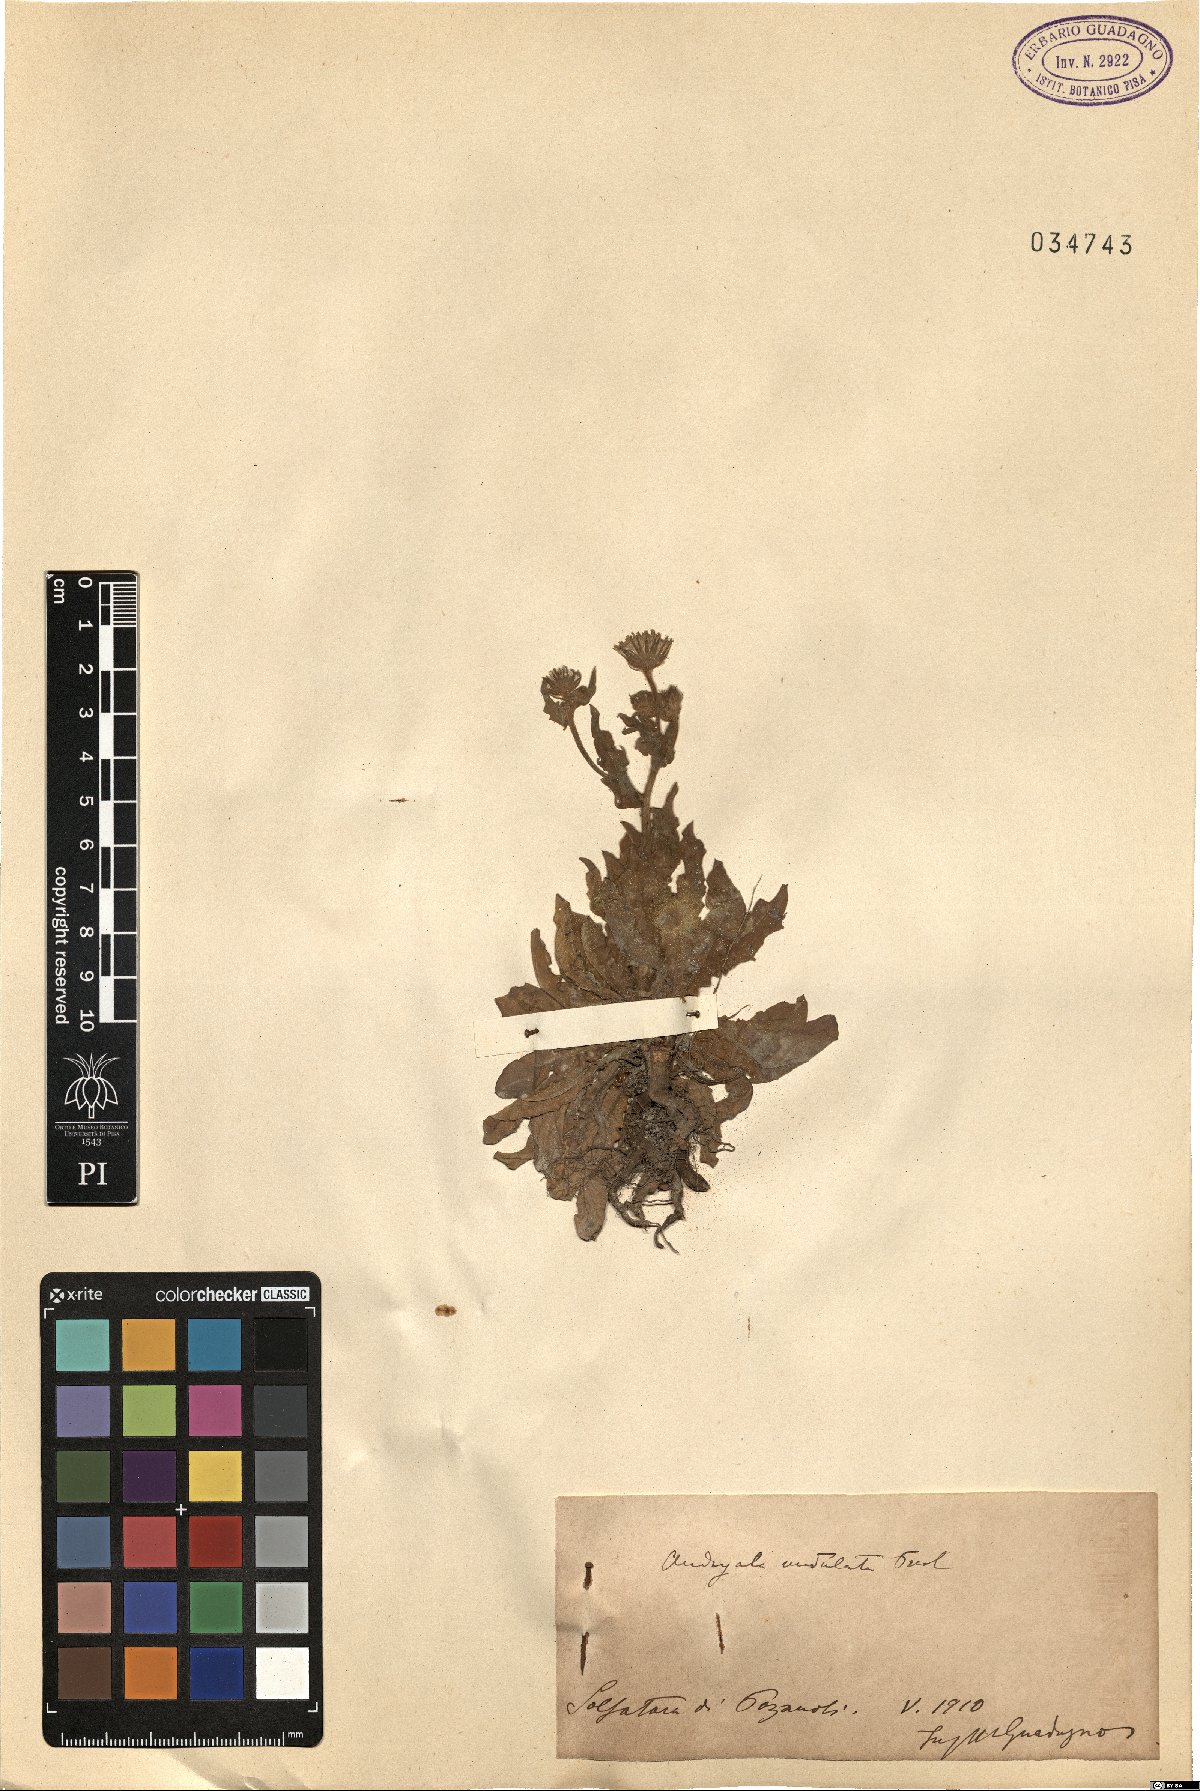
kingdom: Plantae
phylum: Tracheophyta
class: Magnoliopsida
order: Asterales
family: Asteraceae
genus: Andryala
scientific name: Andryala integrifolia
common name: Common andryala
